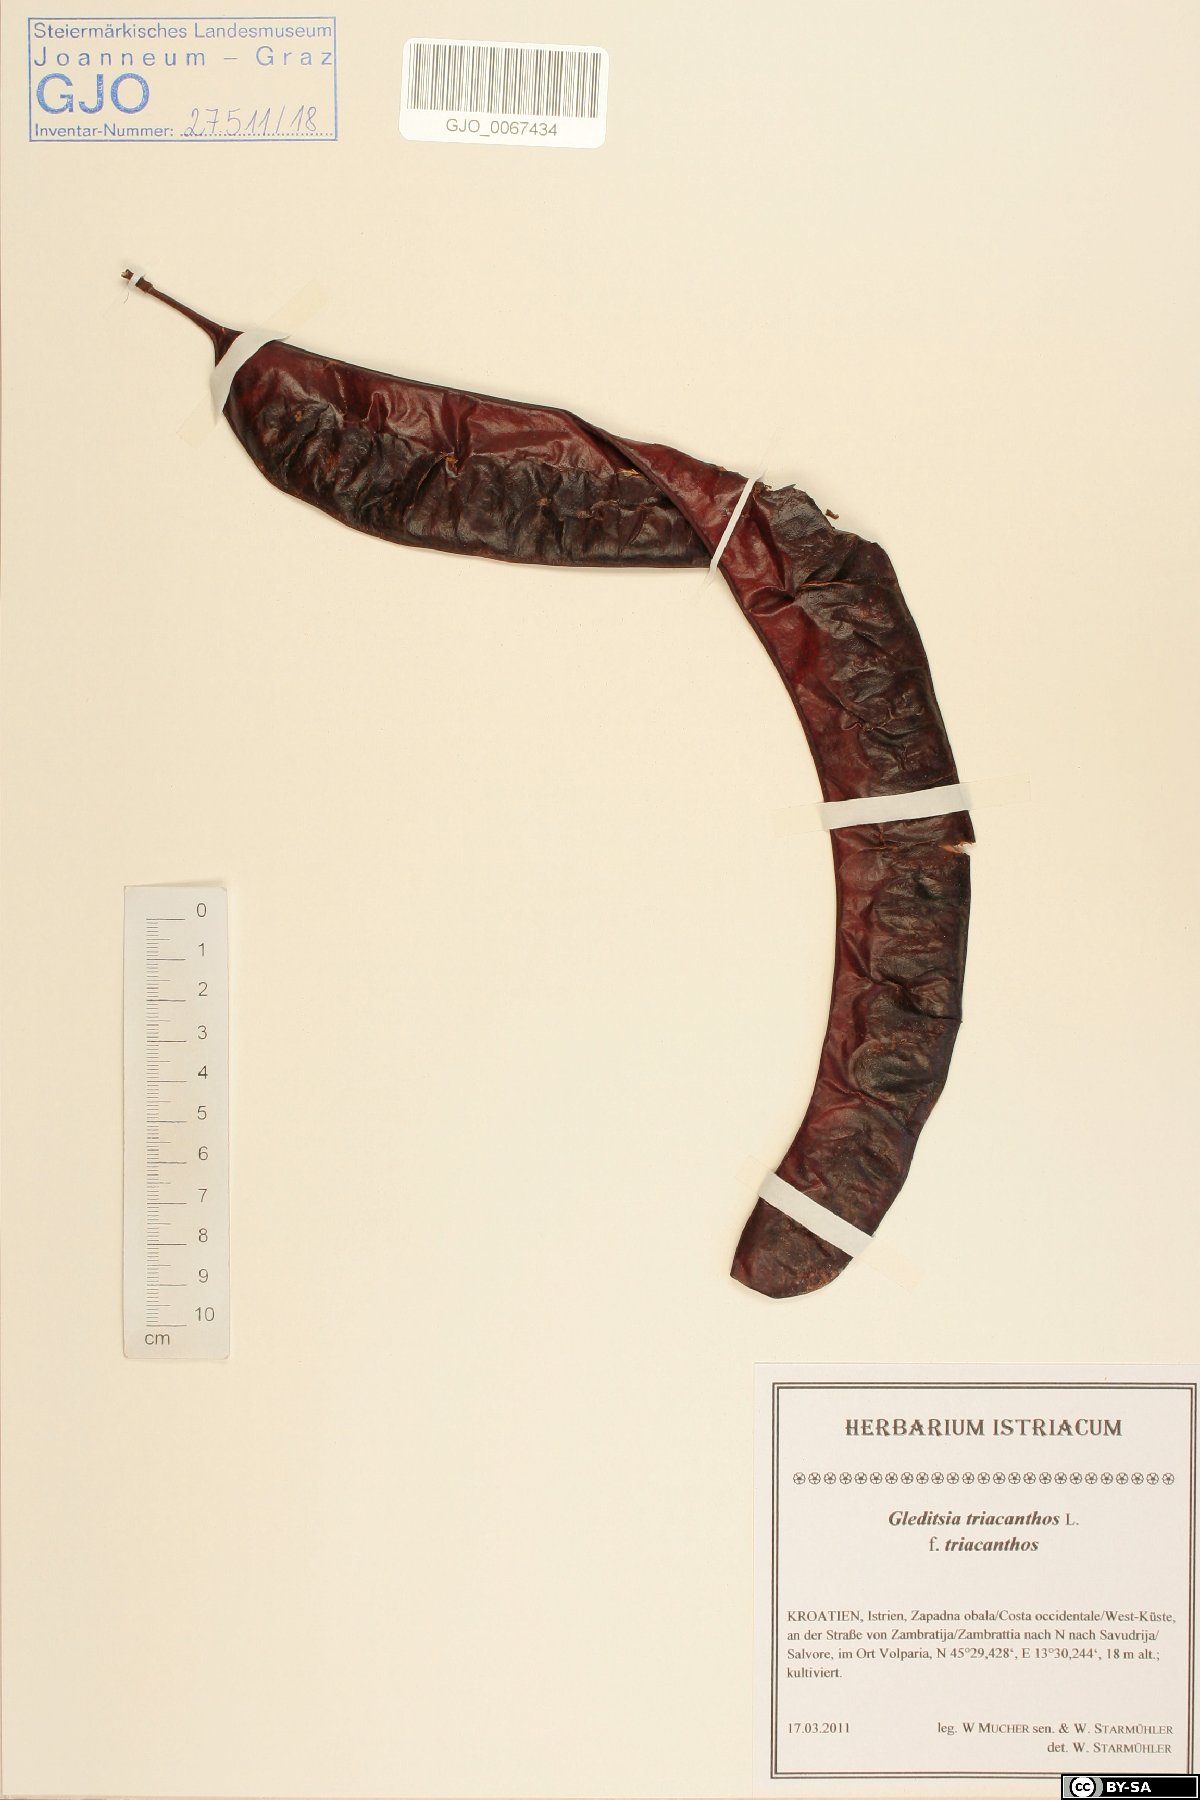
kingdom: Plantae
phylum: Tracheophyta
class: Magnoliopsida
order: Fabales
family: Fabaceae
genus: Gleditsia
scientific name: Gleditsia triacanthos
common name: Common honeylocust
